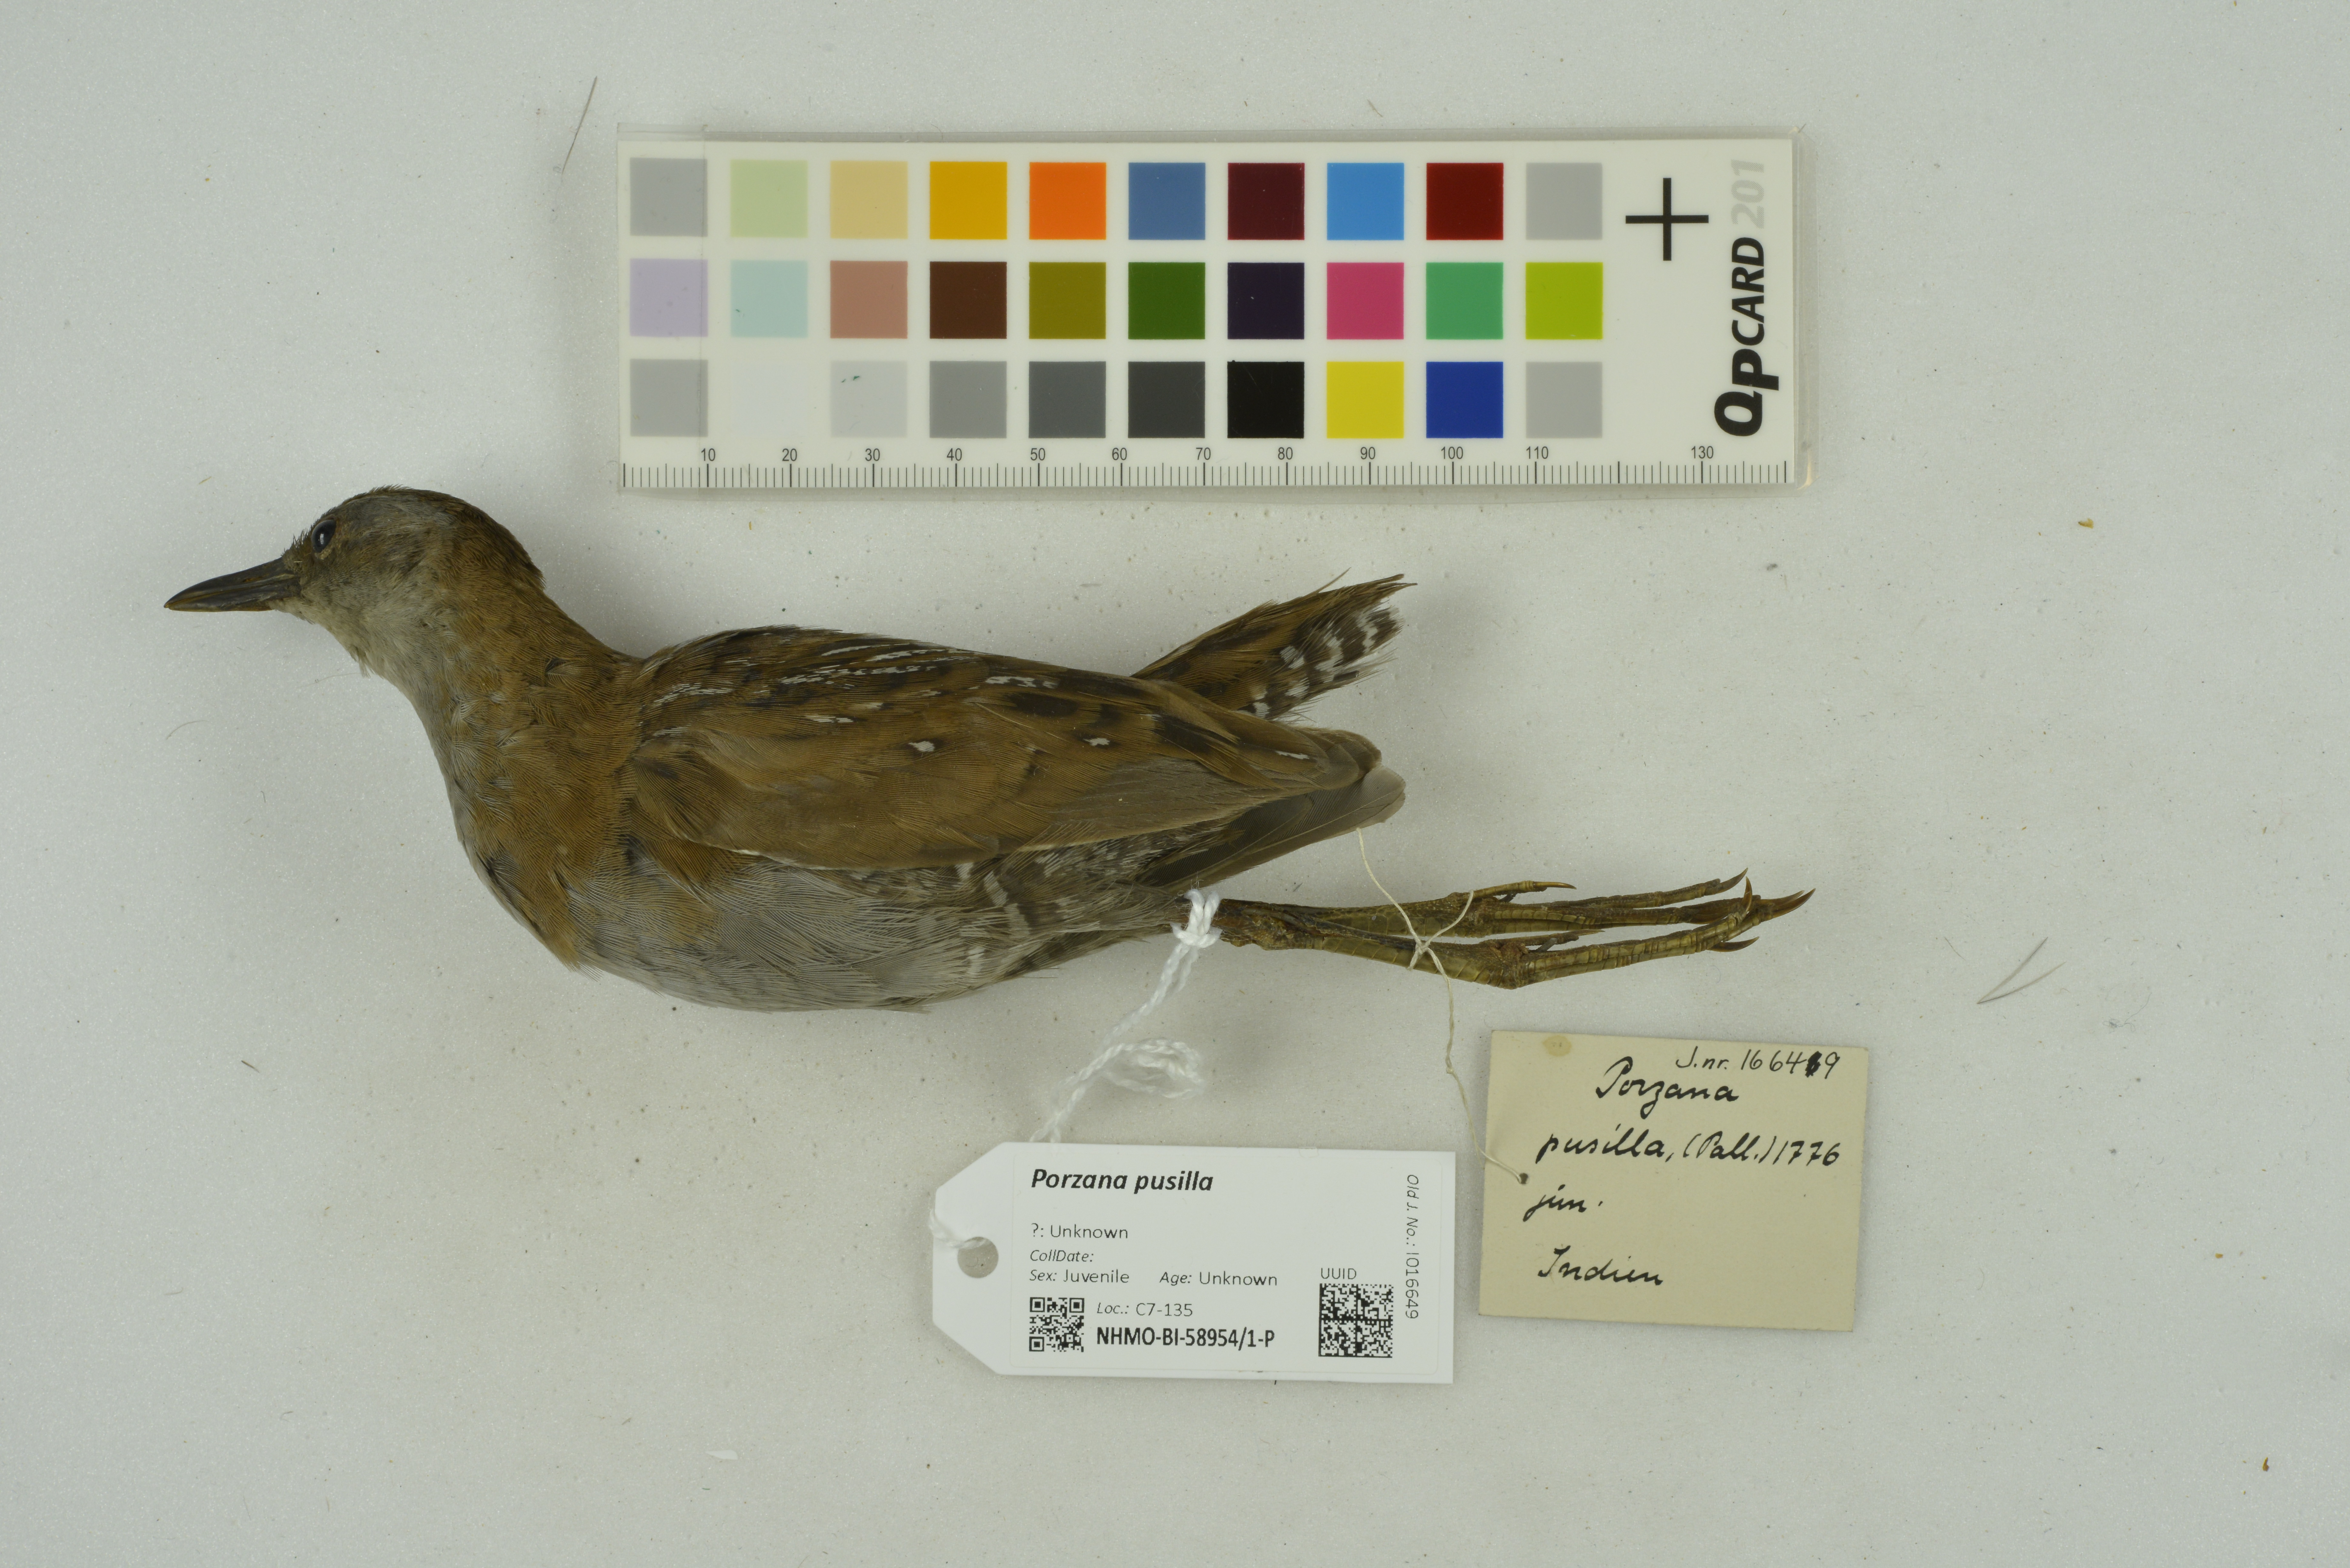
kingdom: Animalia
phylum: Chordata
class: Aves
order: Gruiformes
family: Rallidae
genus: Porzana
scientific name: Porzana pusilla
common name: Baillon's crake
